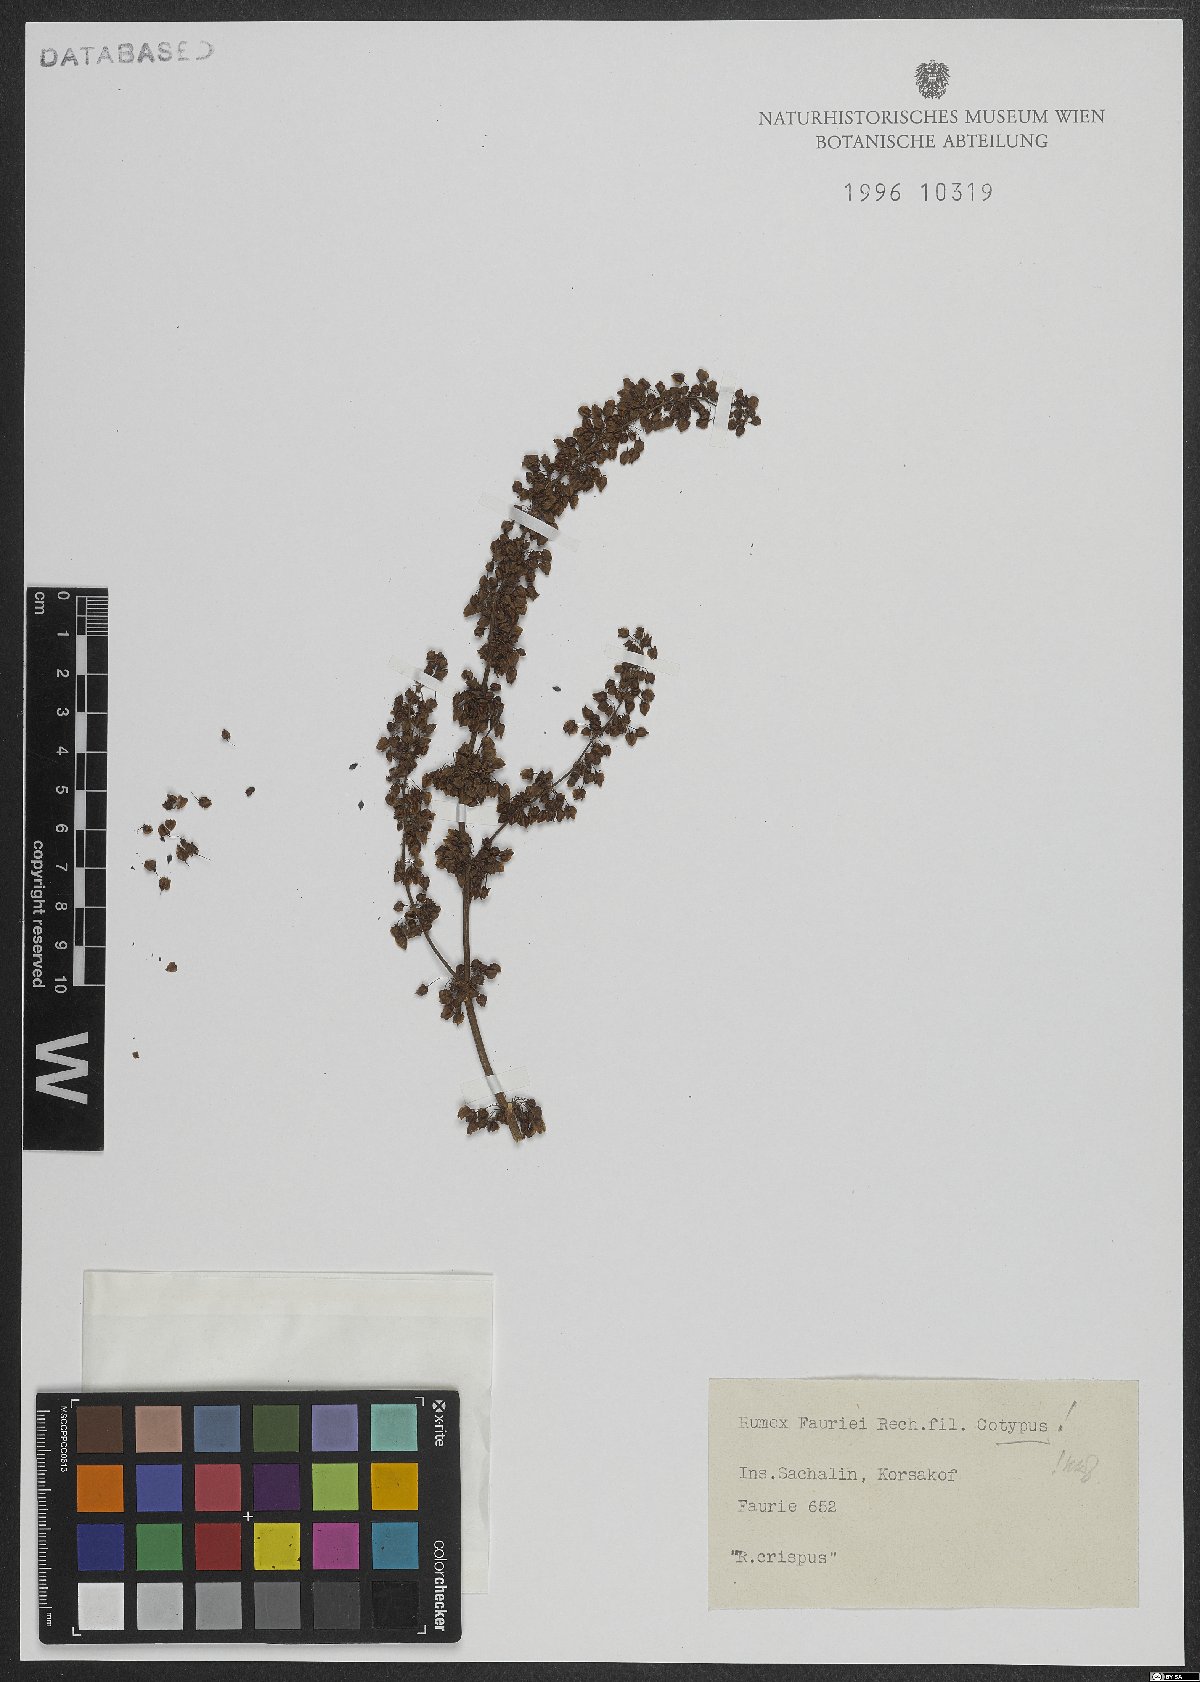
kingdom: Plantae
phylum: Tracheophyta
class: Magnoliopsida
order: Caryophyllales
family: Polygonaceae
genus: Rumex
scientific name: Rumex crispus
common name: Curled dock
